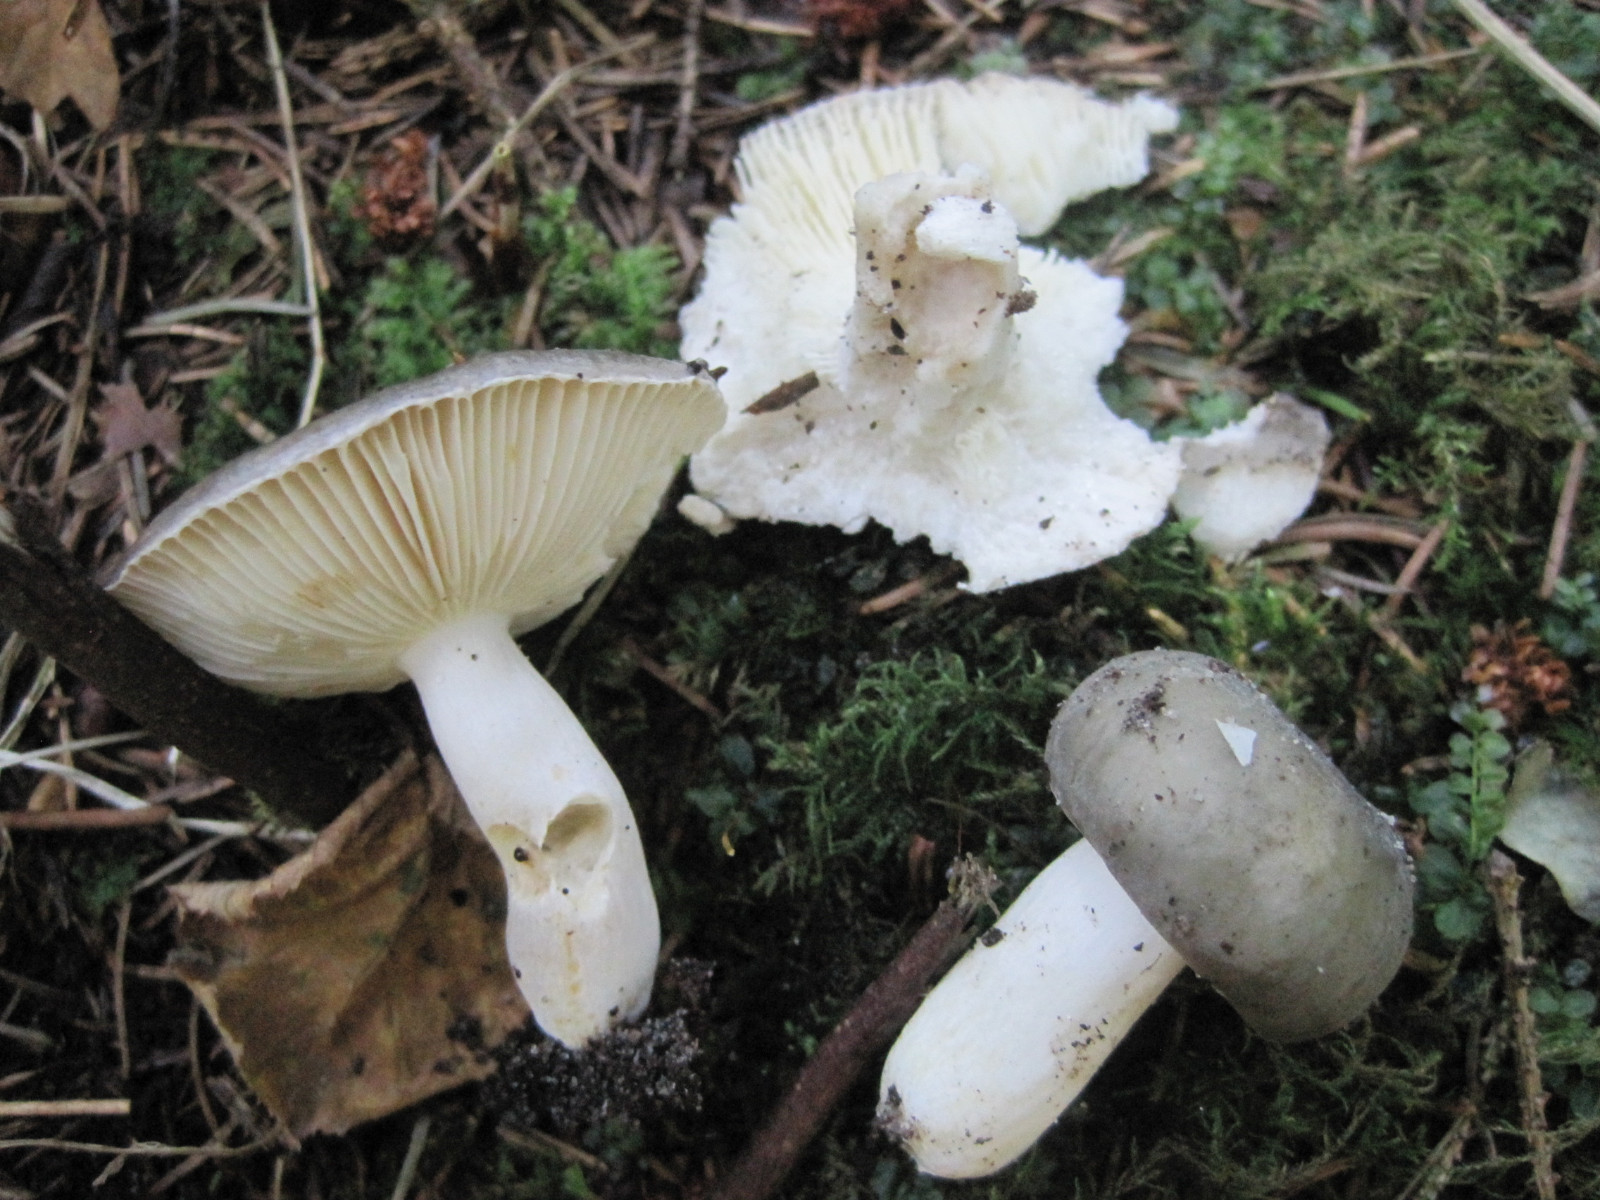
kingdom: Fungi
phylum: Basidiomycota
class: Agaricomycetes
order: Russulales
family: Russulaceae
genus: Russula
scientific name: Russula ionochlora
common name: violetgrøn skørhat
